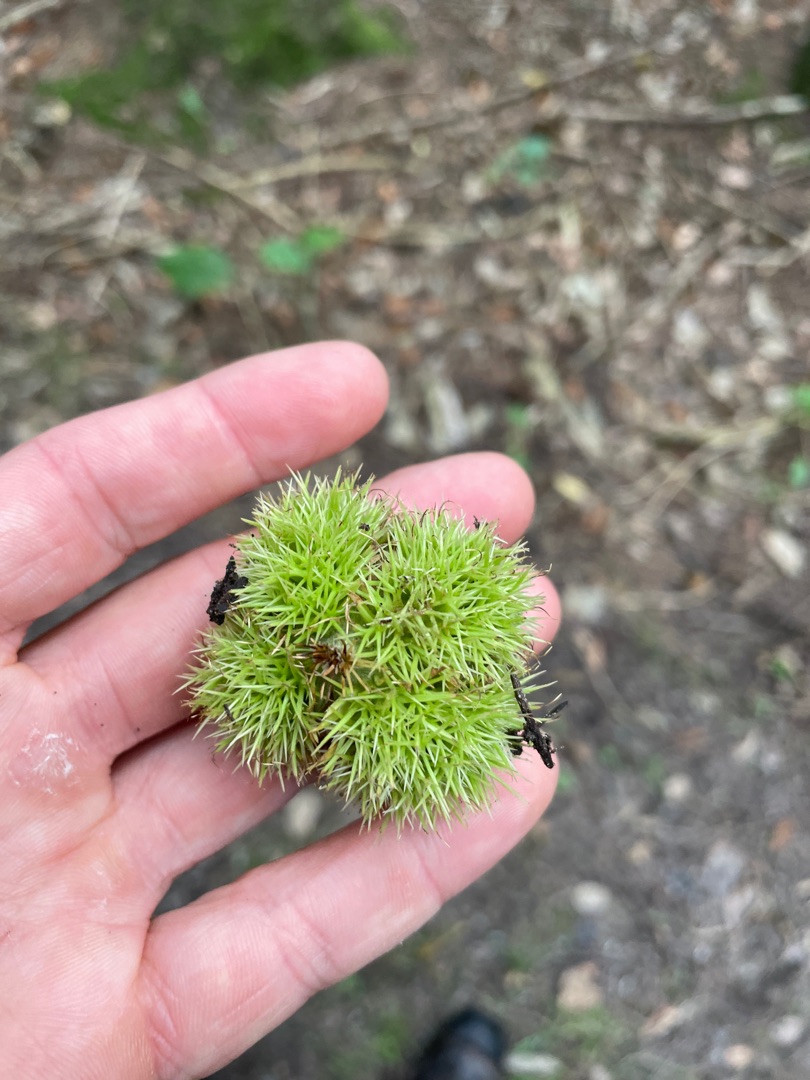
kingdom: Plantae
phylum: Tracheophyta
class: Magnoliopsida
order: Fagales
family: Fagaceae
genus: Castanea
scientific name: Castanea sativa
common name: Ægte kastanie
